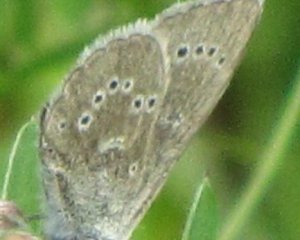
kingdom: Animalia
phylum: Arthropoda
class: Insecta
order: Lepidoptera
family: Lycaenidae
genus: Glaucopsyche
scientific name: Glaucopsyche lygdamus
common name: Silvery Blue
